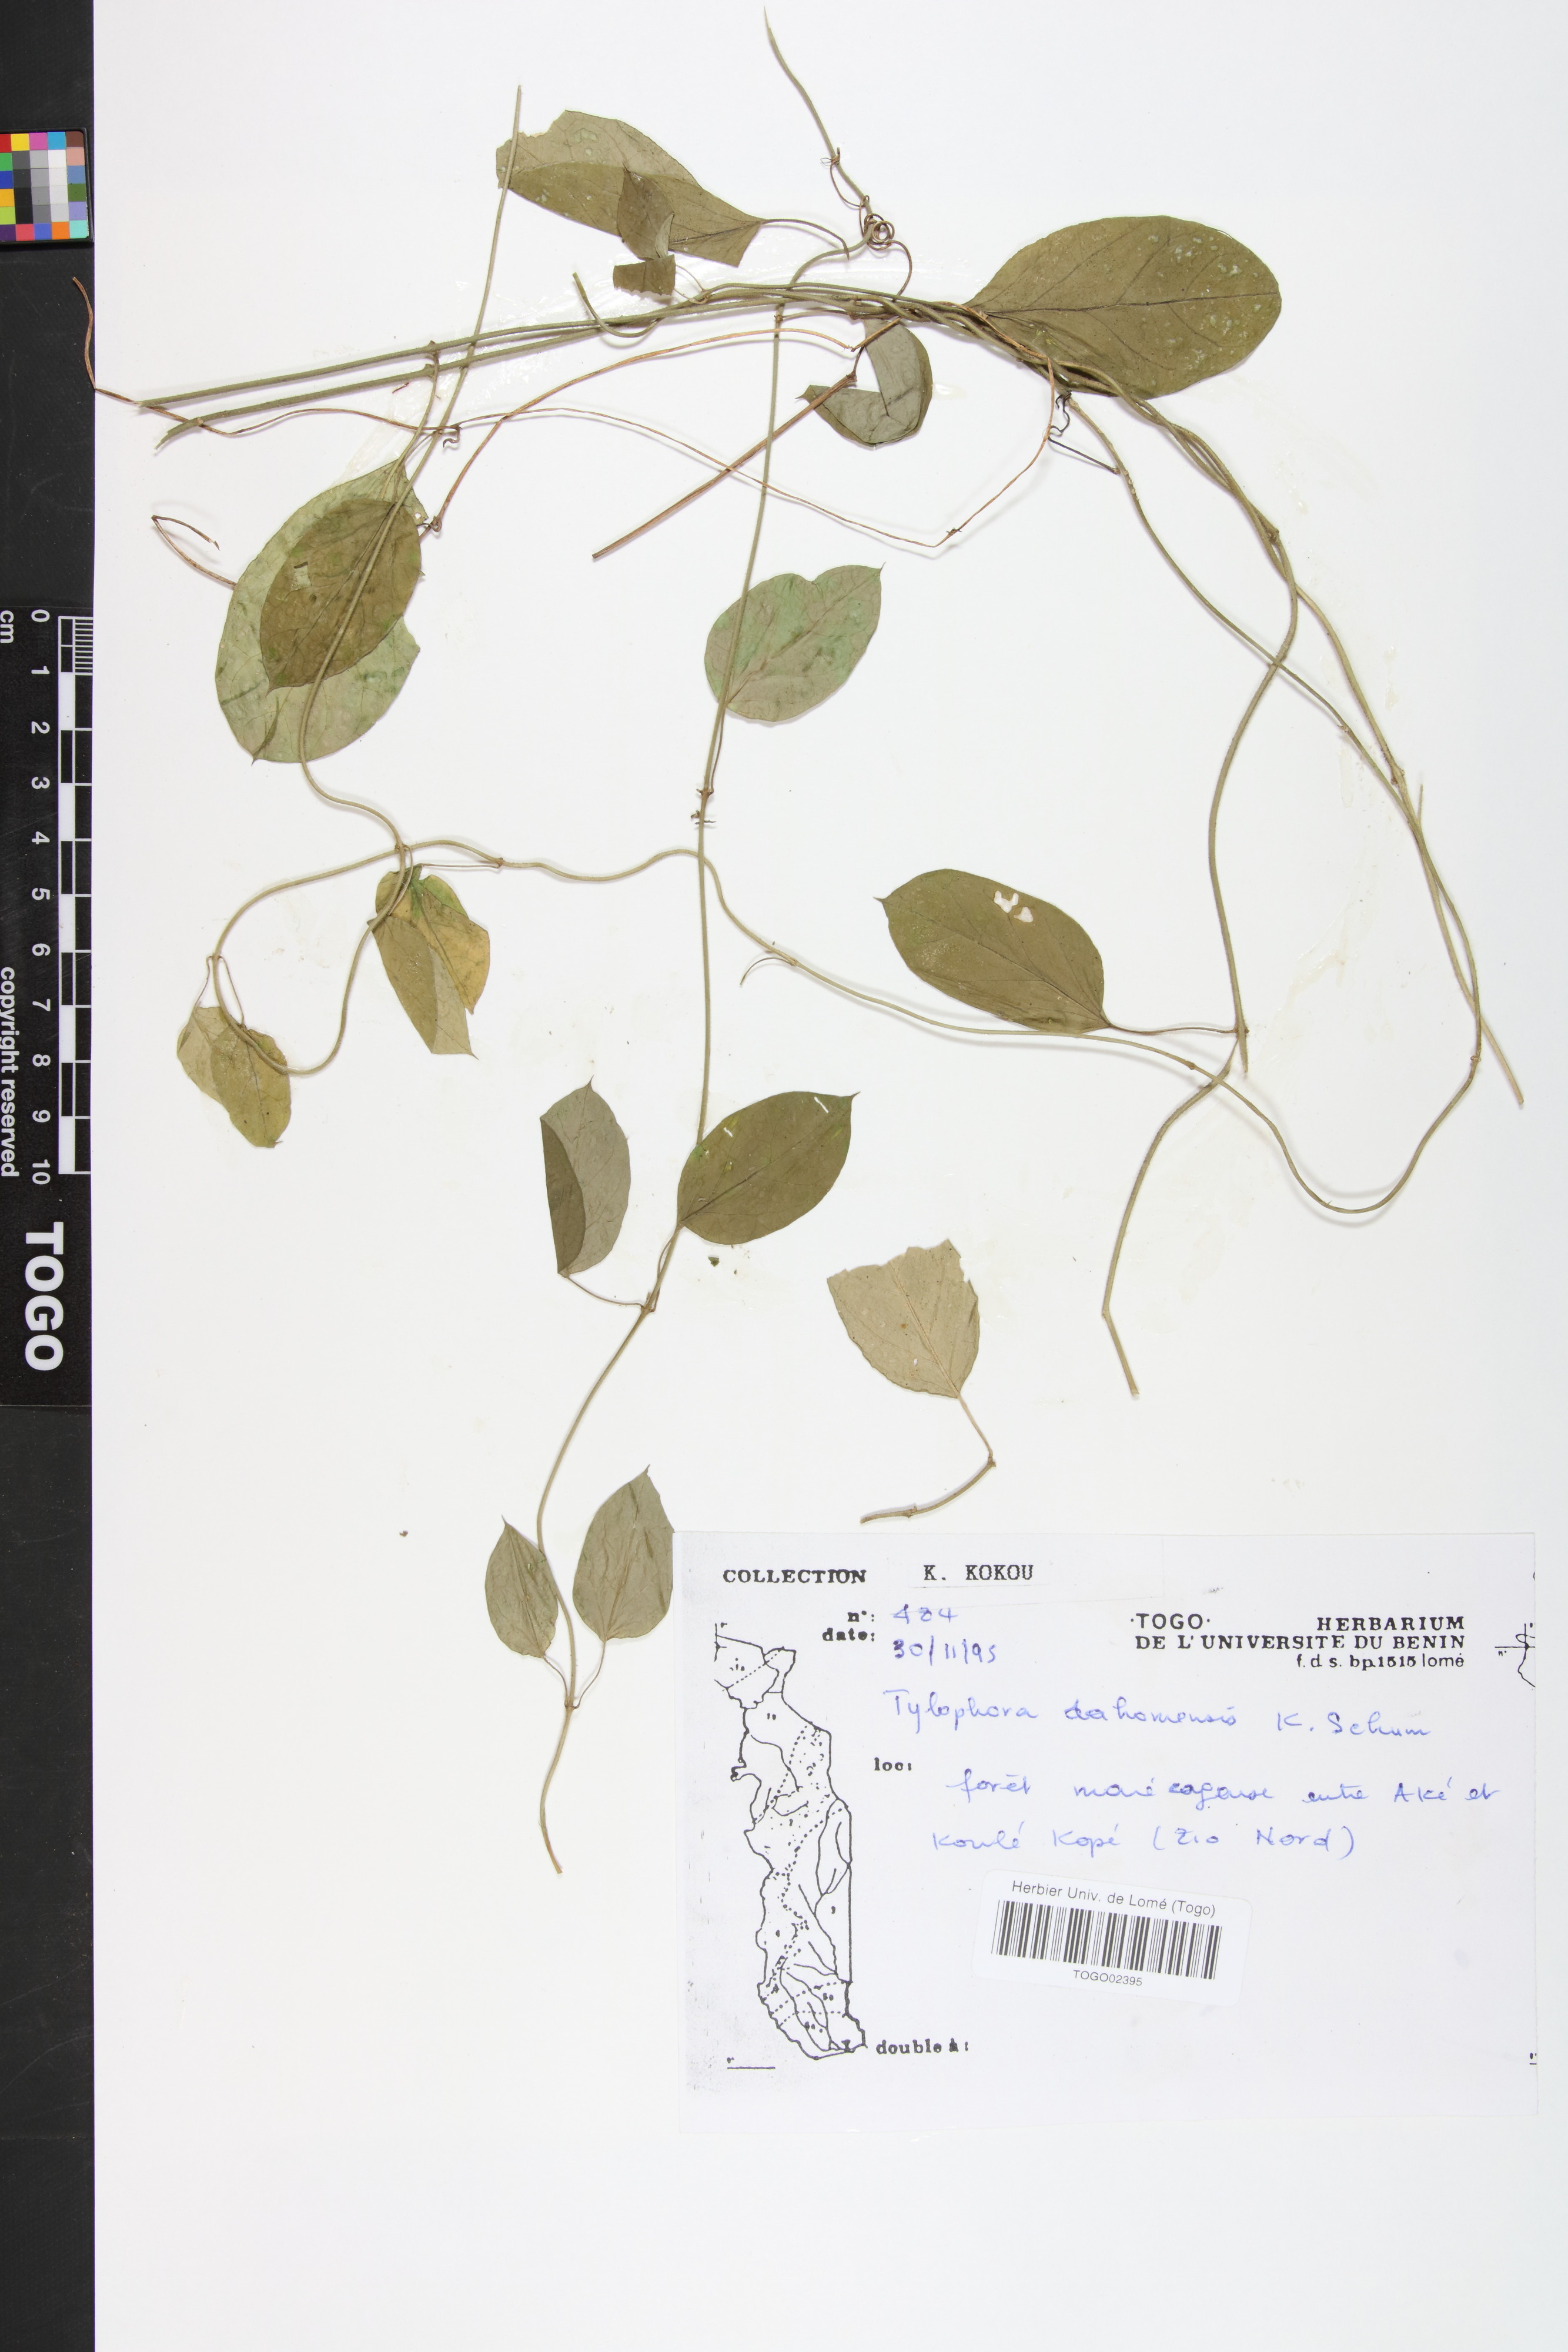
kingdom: Plantae
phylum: Tracheophyta
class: Magnoliopsida
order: Gentianales
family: Apocynaceae
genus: Vincetoxicum
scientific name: Vincetoxicum dahomense
